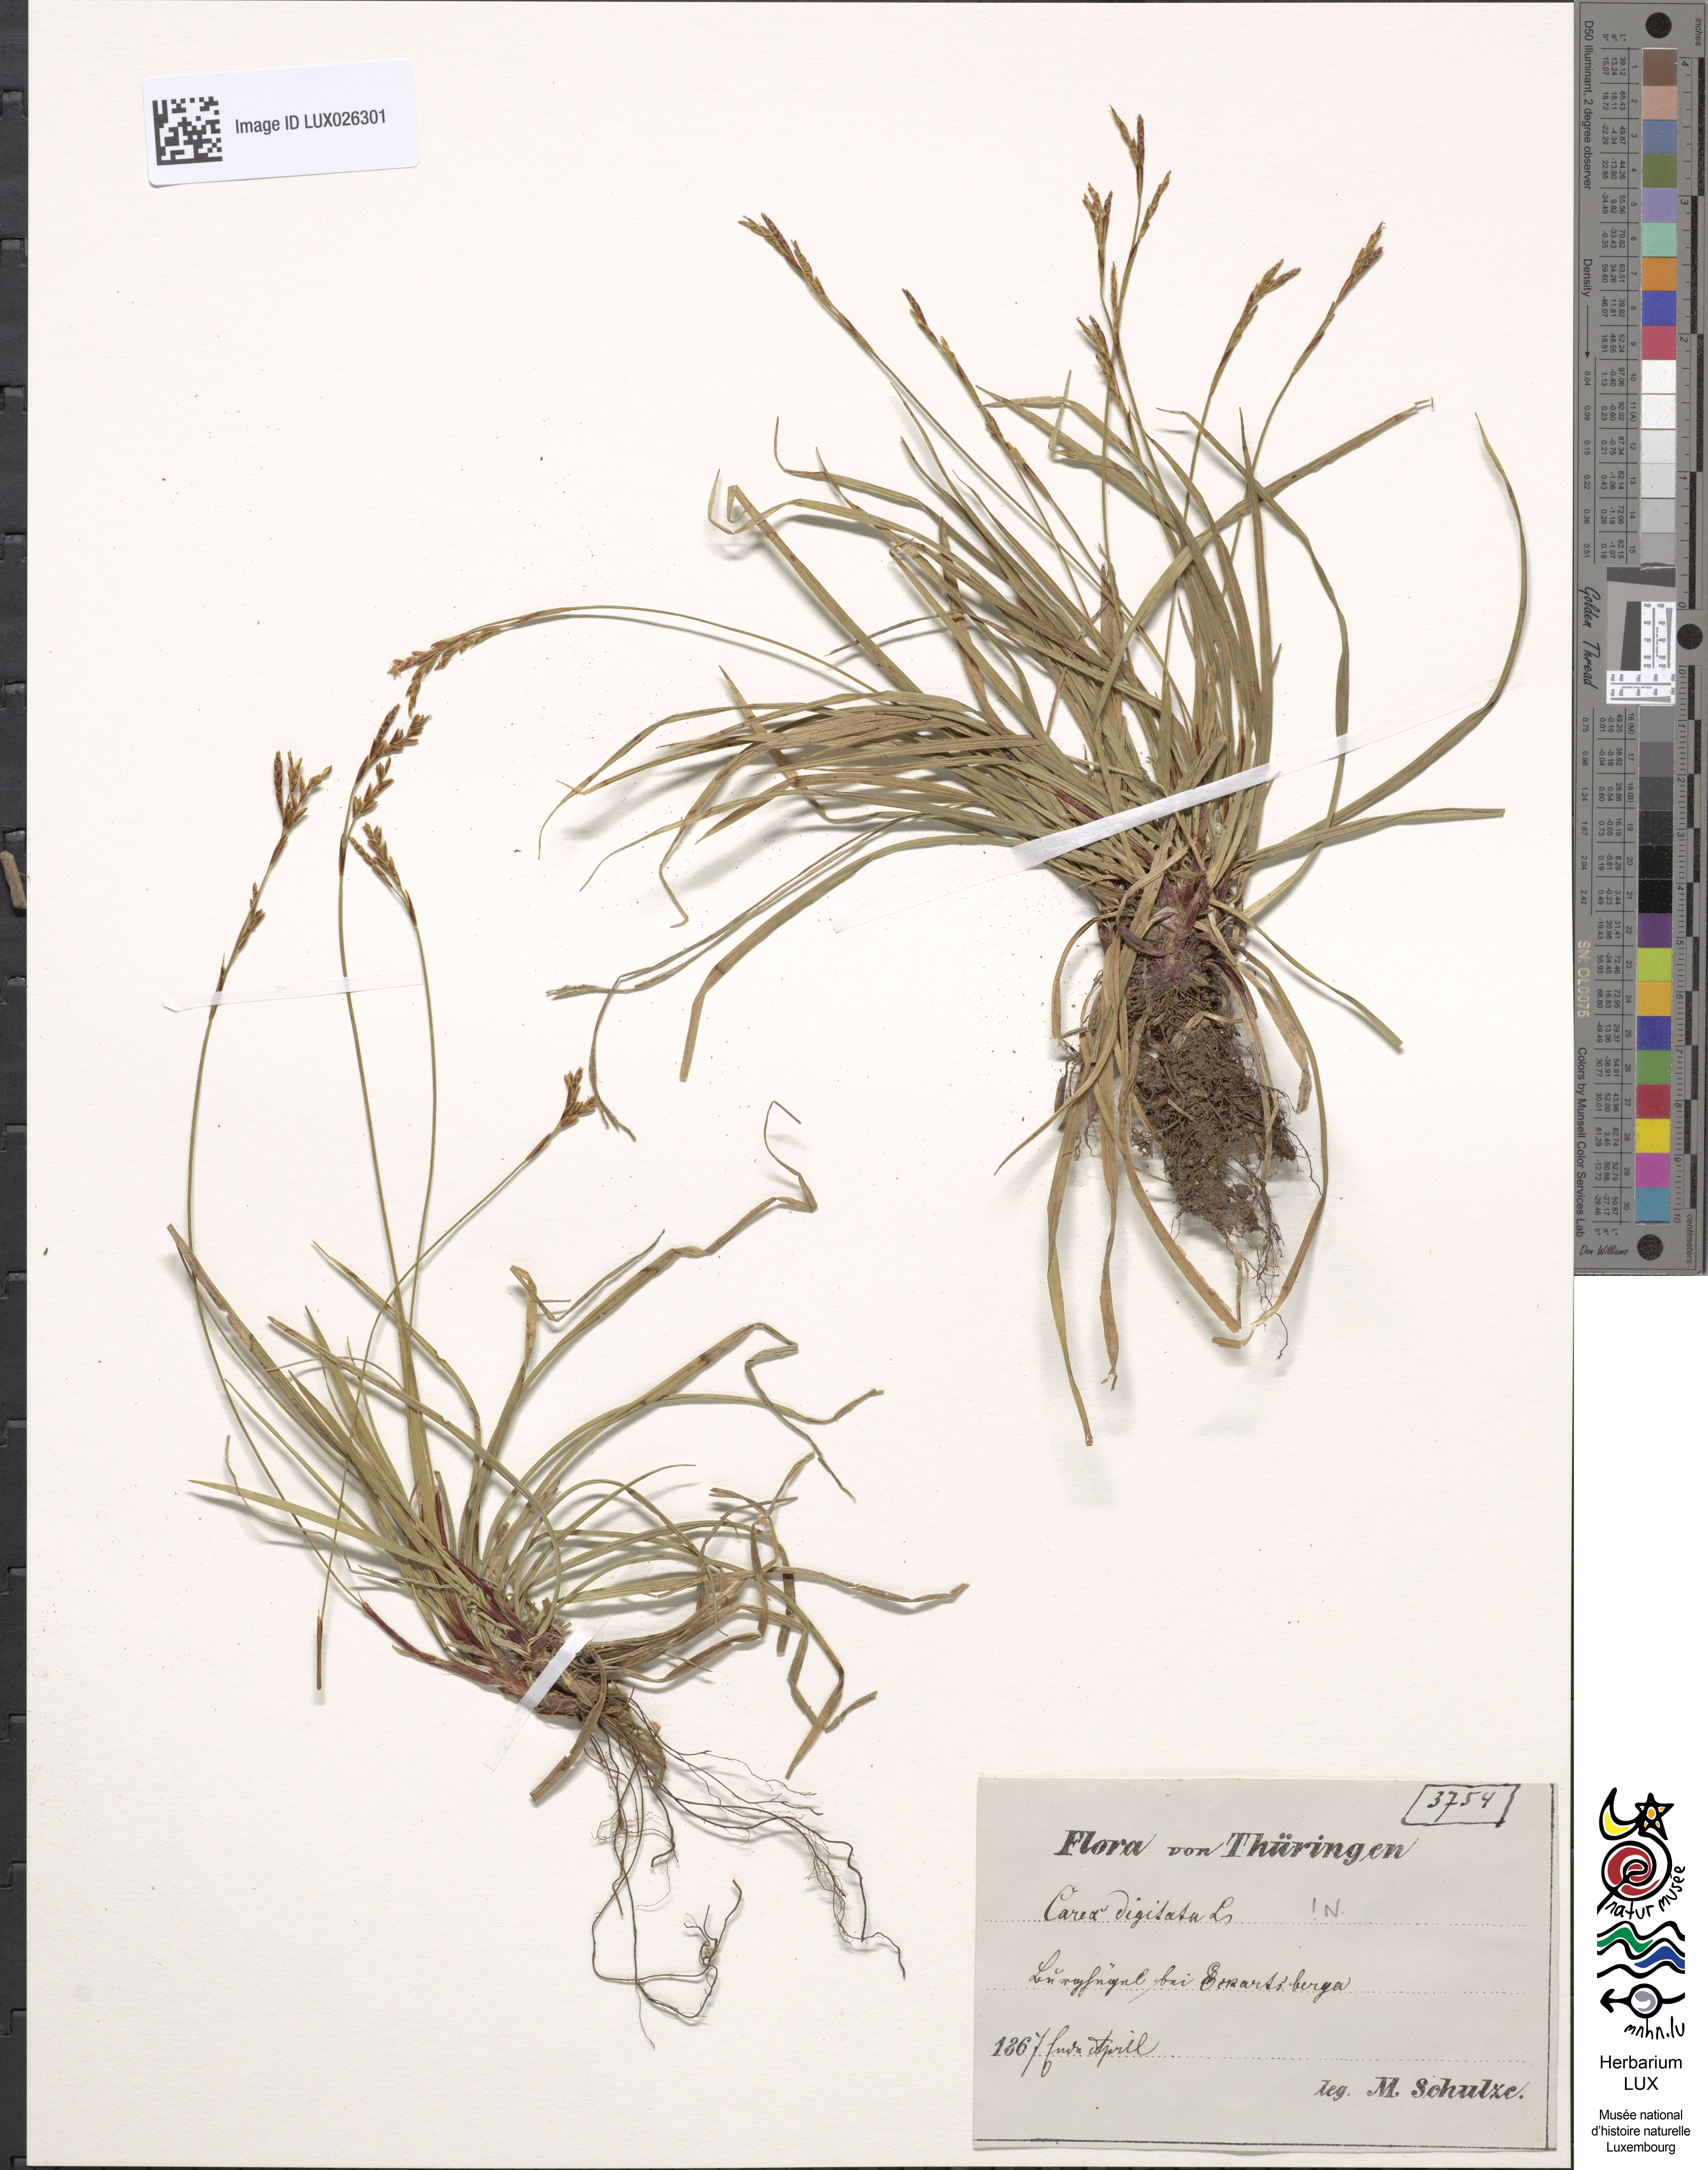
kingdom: Plantae
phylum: Tracheophyta
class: Liliopsida
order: Poales
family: Cyperaceae
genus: Carex
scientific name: Carex digitata
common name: Fingered sedge
